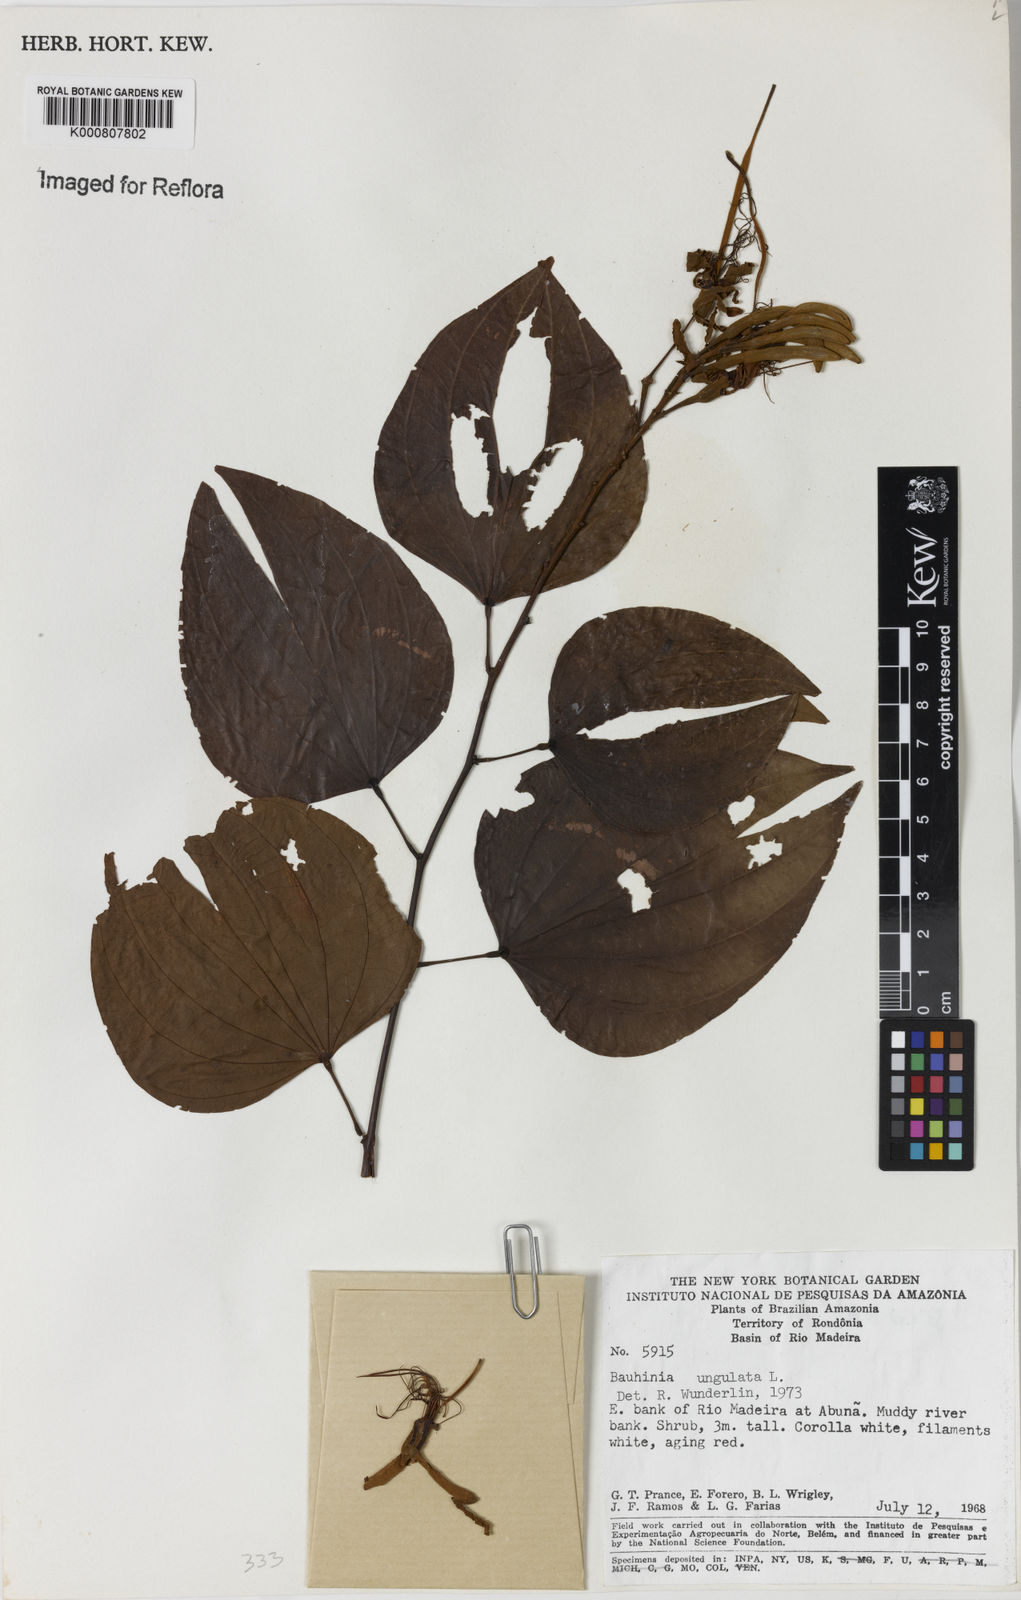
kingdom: Plantae
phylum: Tracheophyta
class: Magnoliopsida
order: Fabales
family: Fabaceae
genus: Bauhinia
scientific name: Bauhinia ungulata
